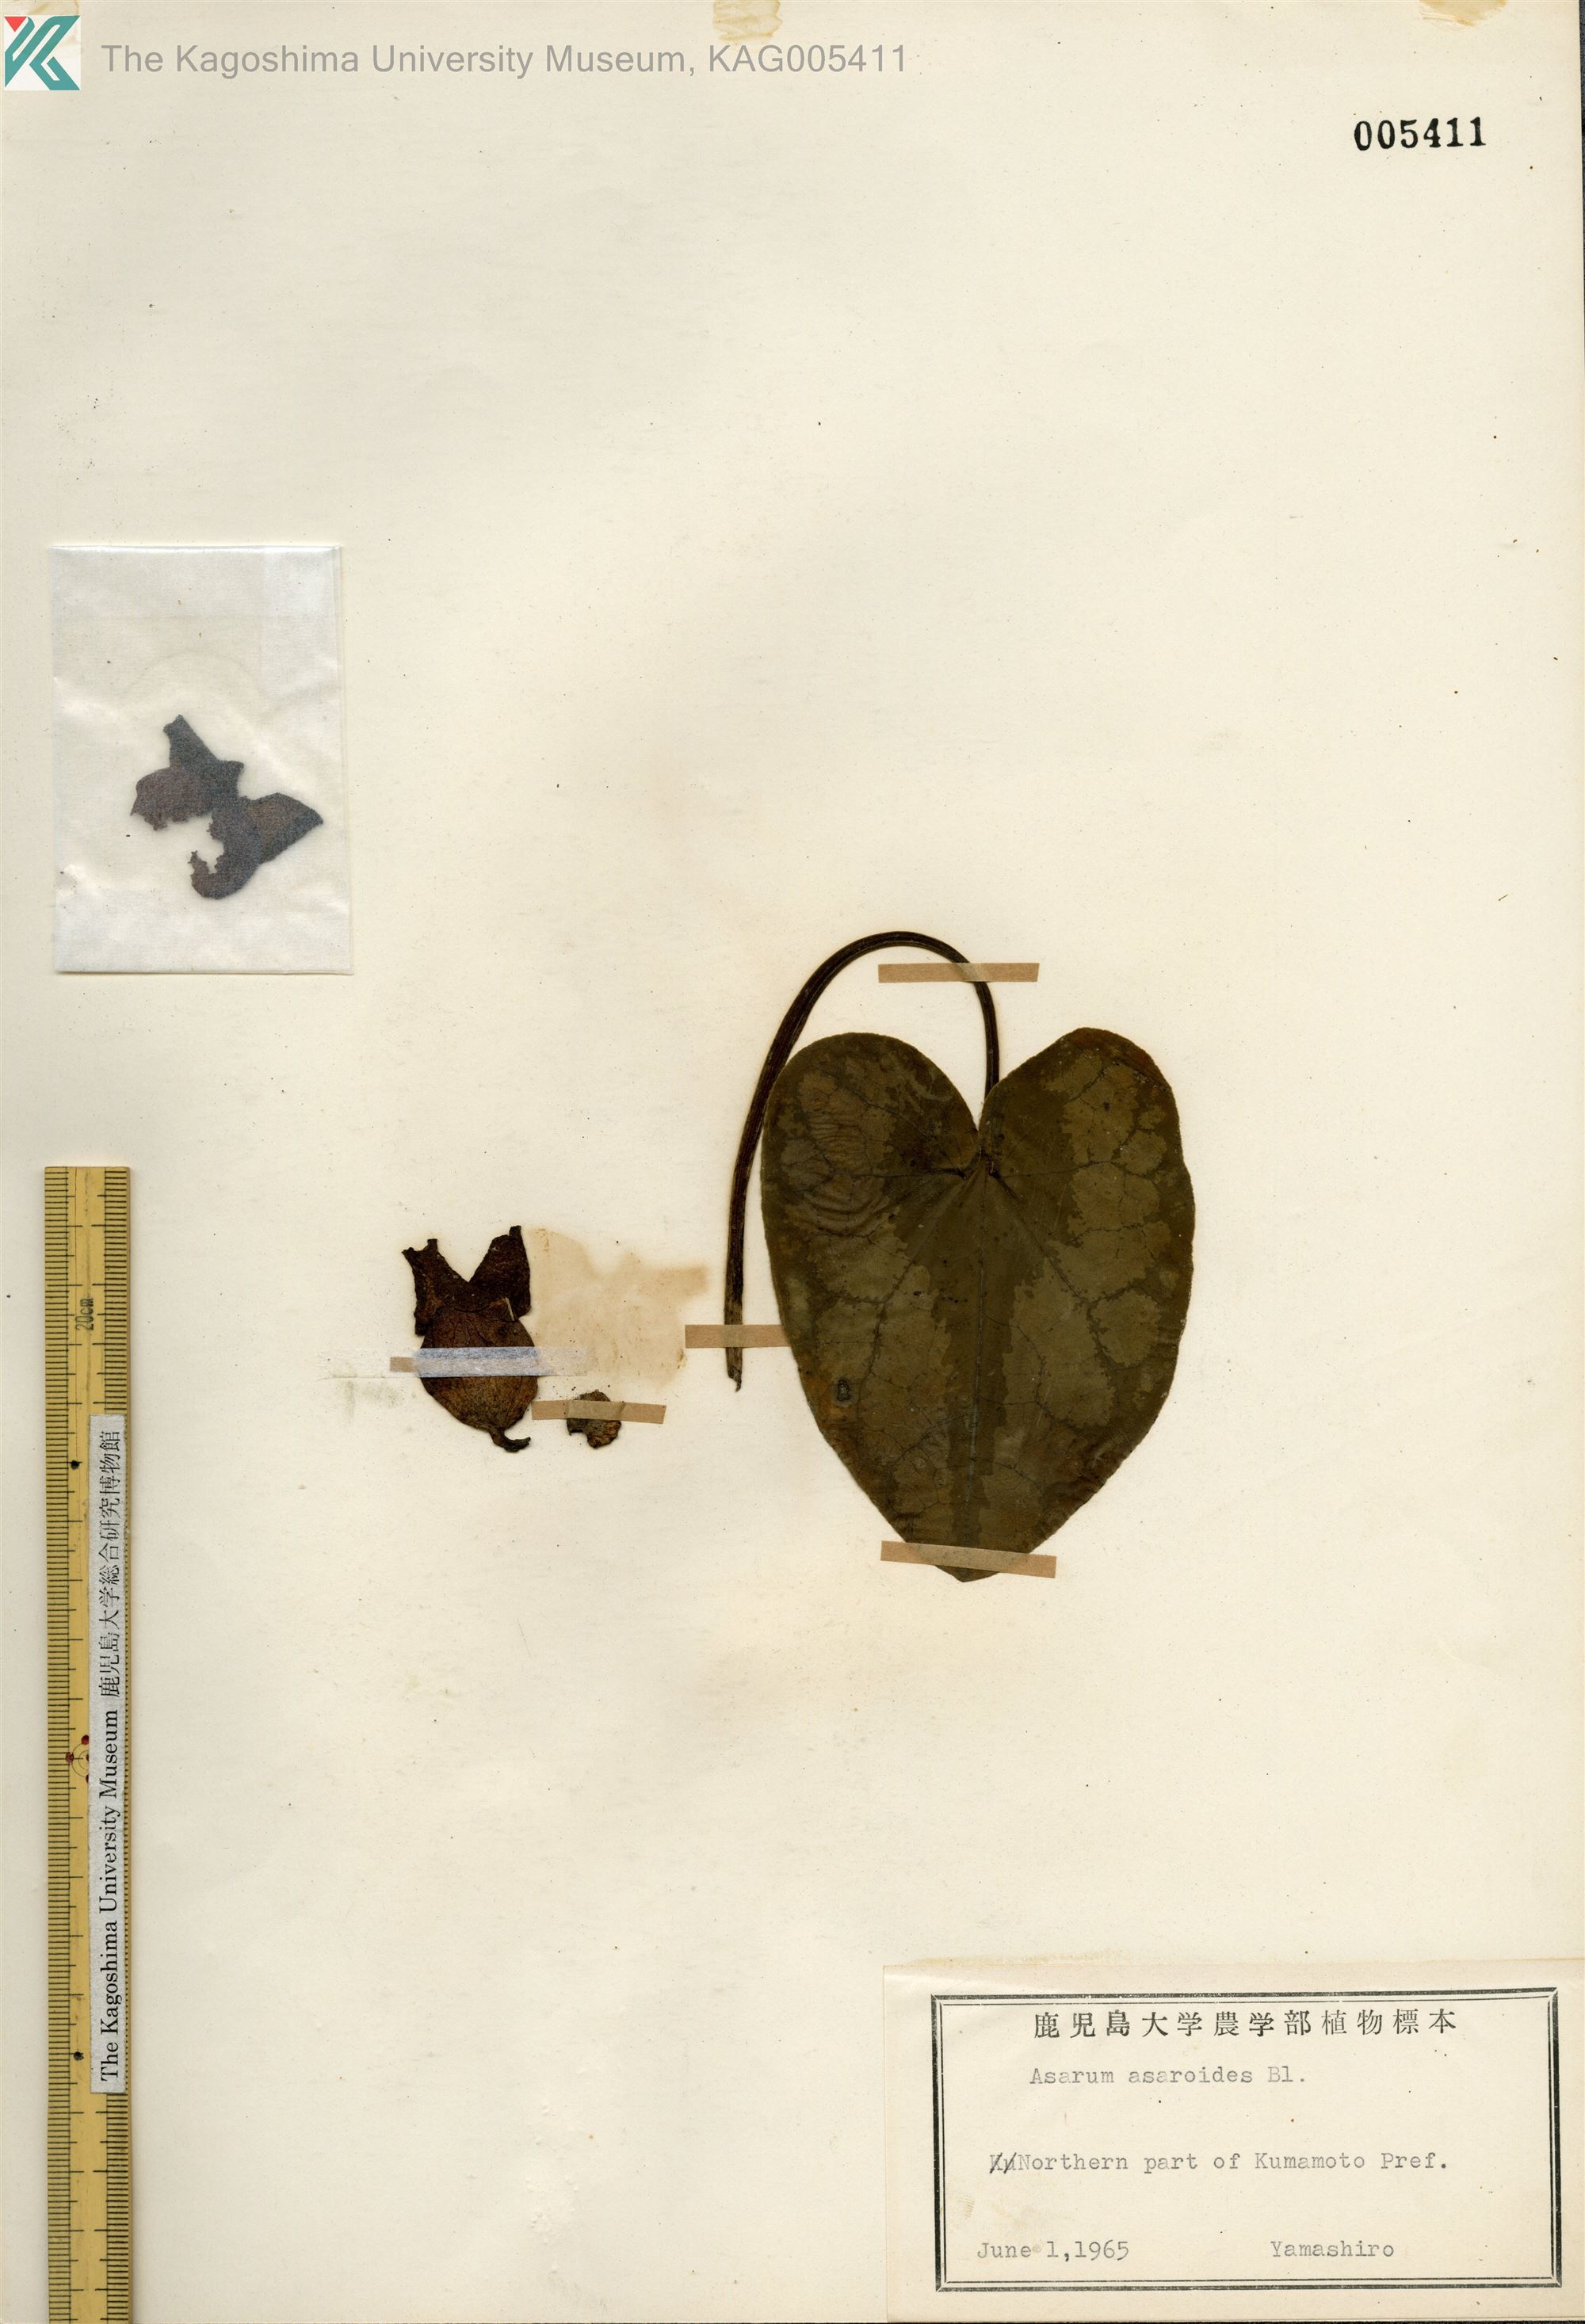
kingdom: Plantae
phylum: Tracheophyta
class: Magnoliopsida
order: Piperales
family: Aristolochiaceae
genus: Asarum
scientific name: Asarum asaroides
